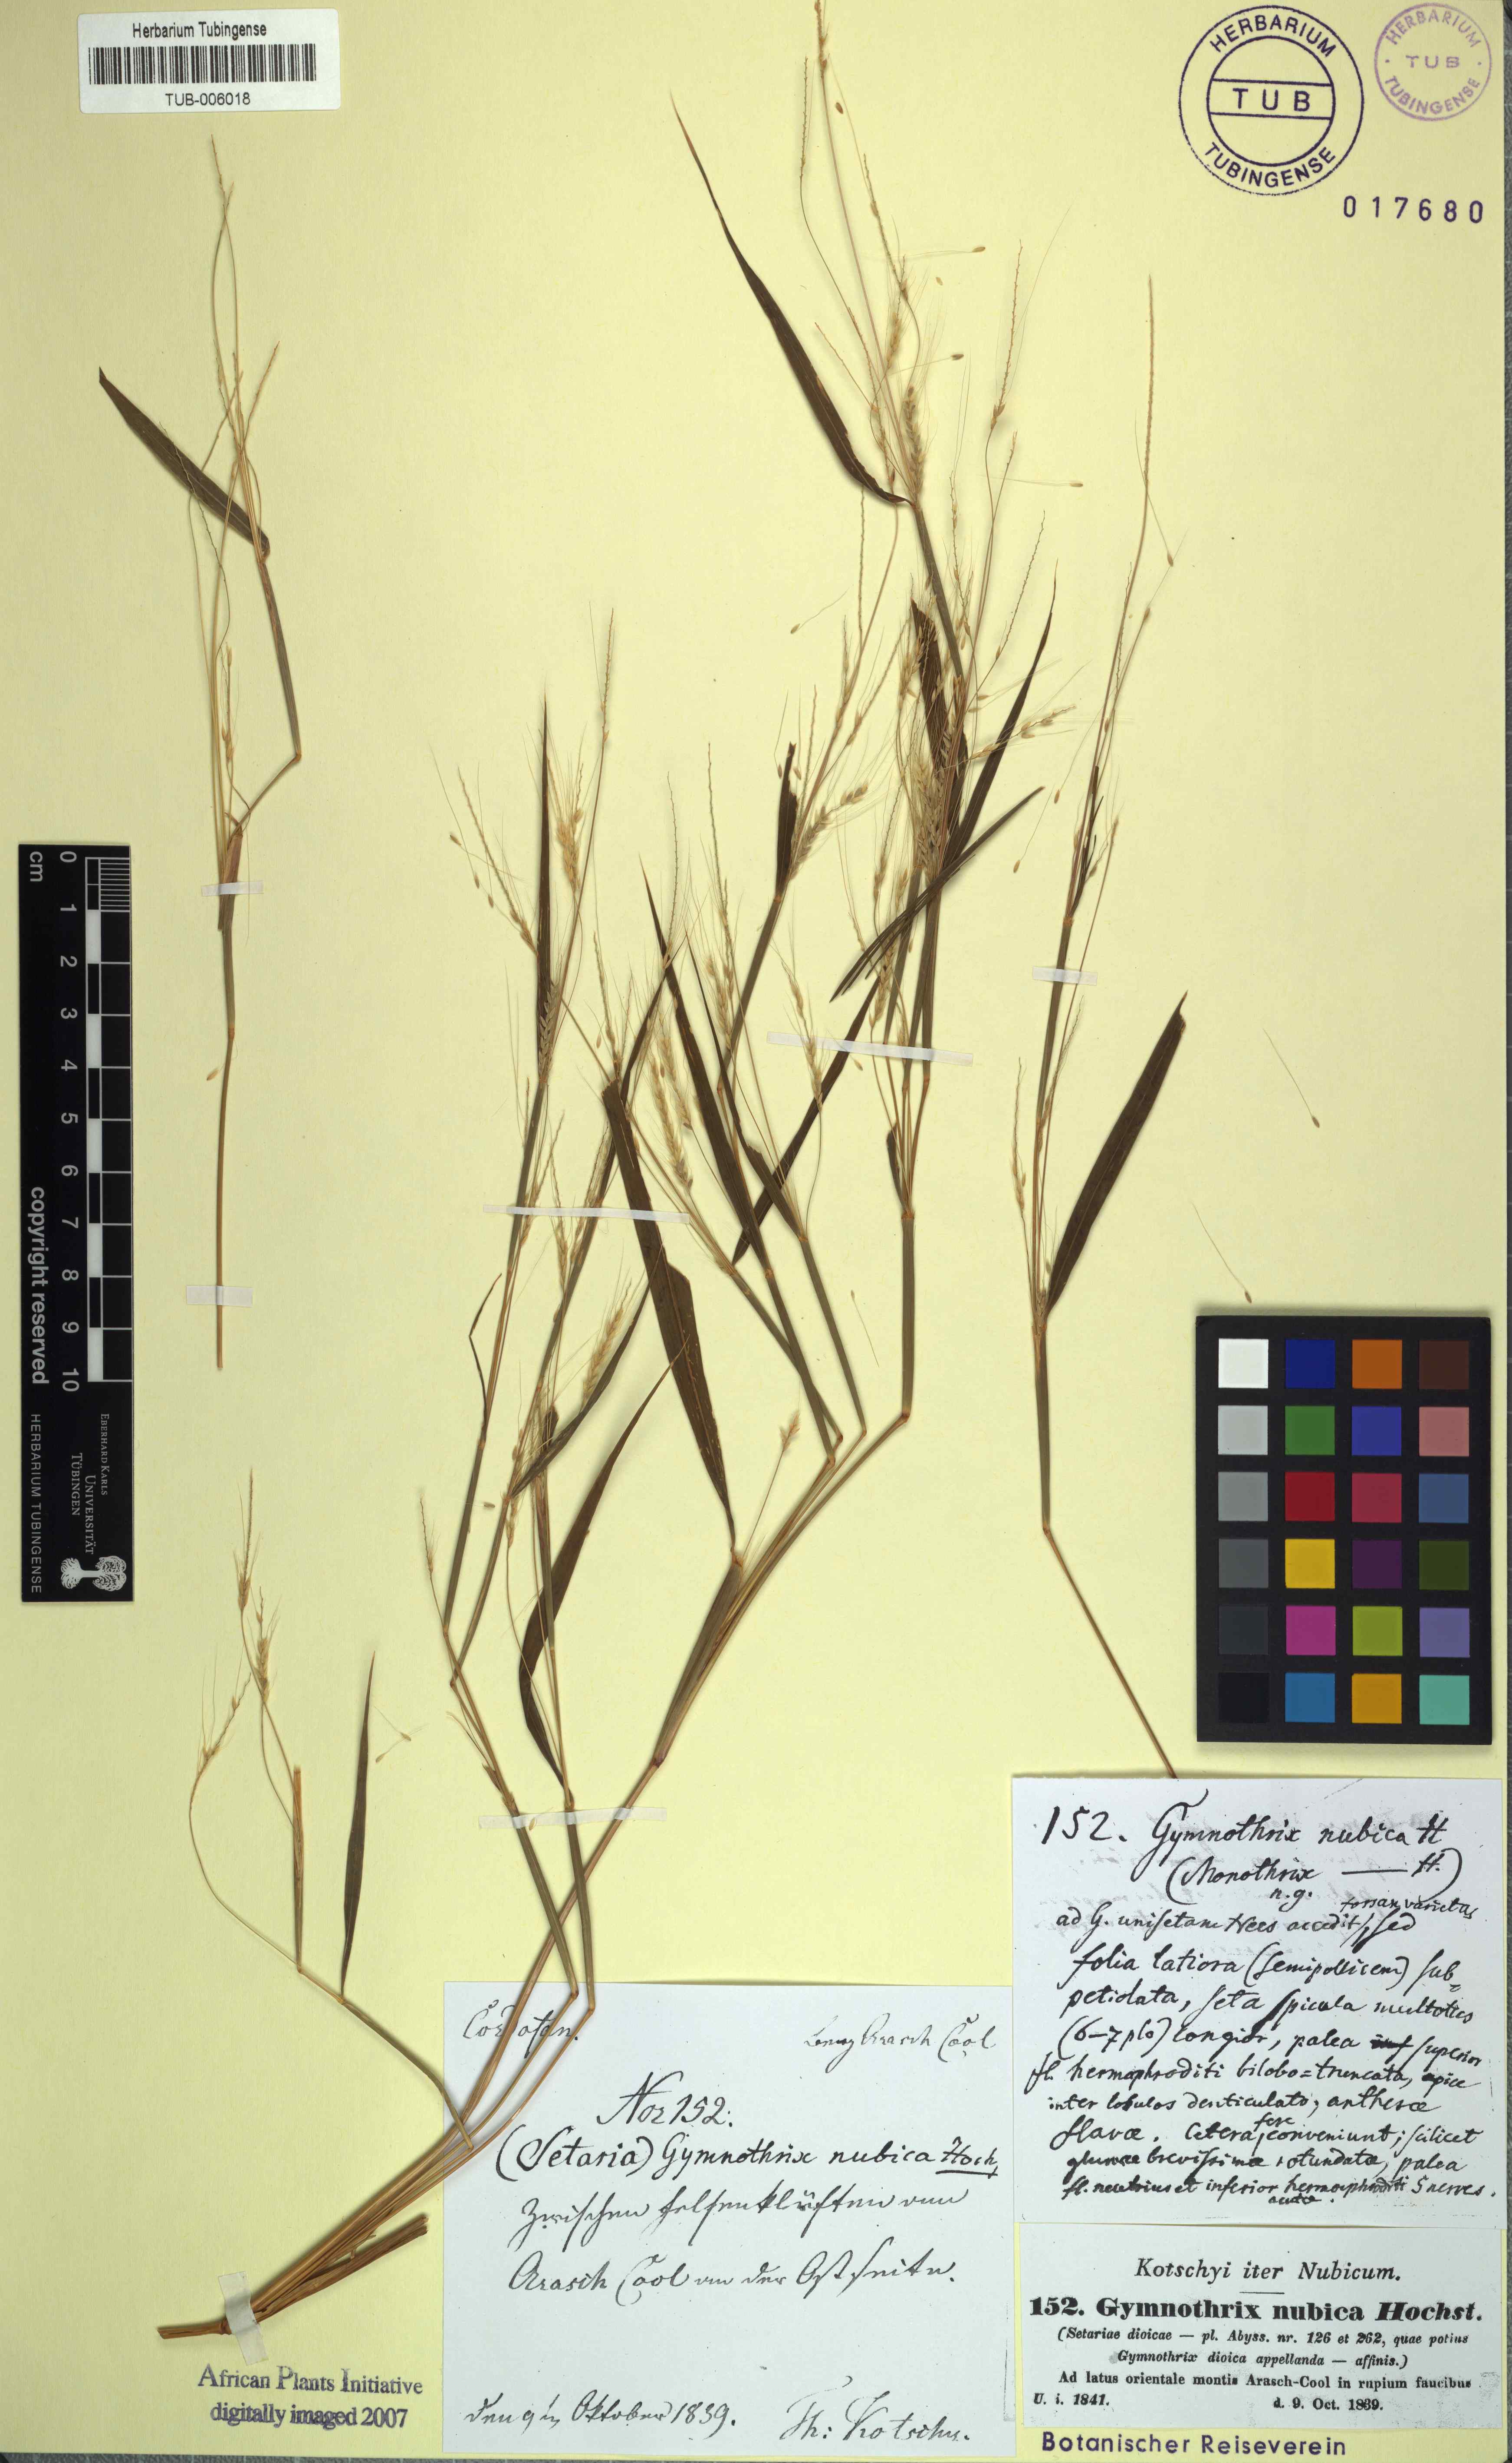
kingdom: Plantae
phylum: Tracheophyta
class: Liliopsida
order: Poales
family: Poaceae
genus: Cenchrus
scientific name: Cenchrus nubicus
